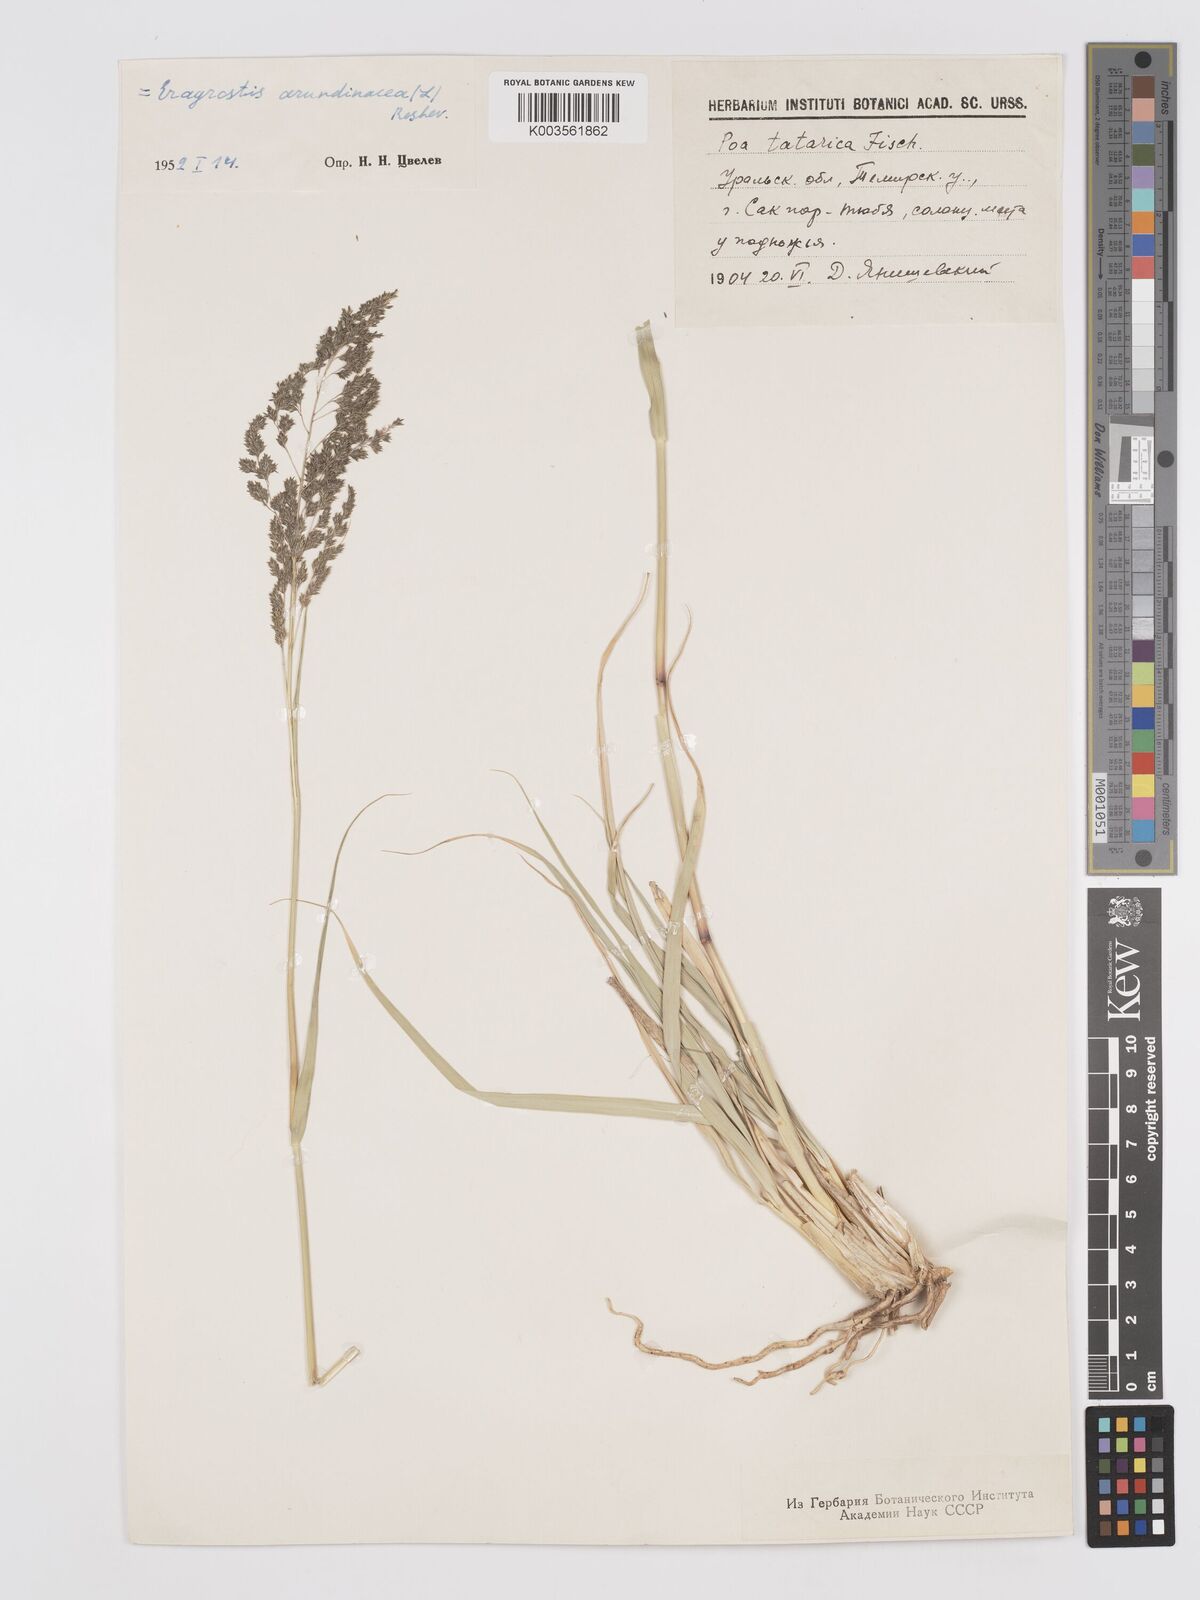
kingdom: Plantae
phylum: Tracheophyta
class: Liliopsida
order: Poales
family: Poaceae
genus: Eragrostis
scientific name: Eragrostis collina
